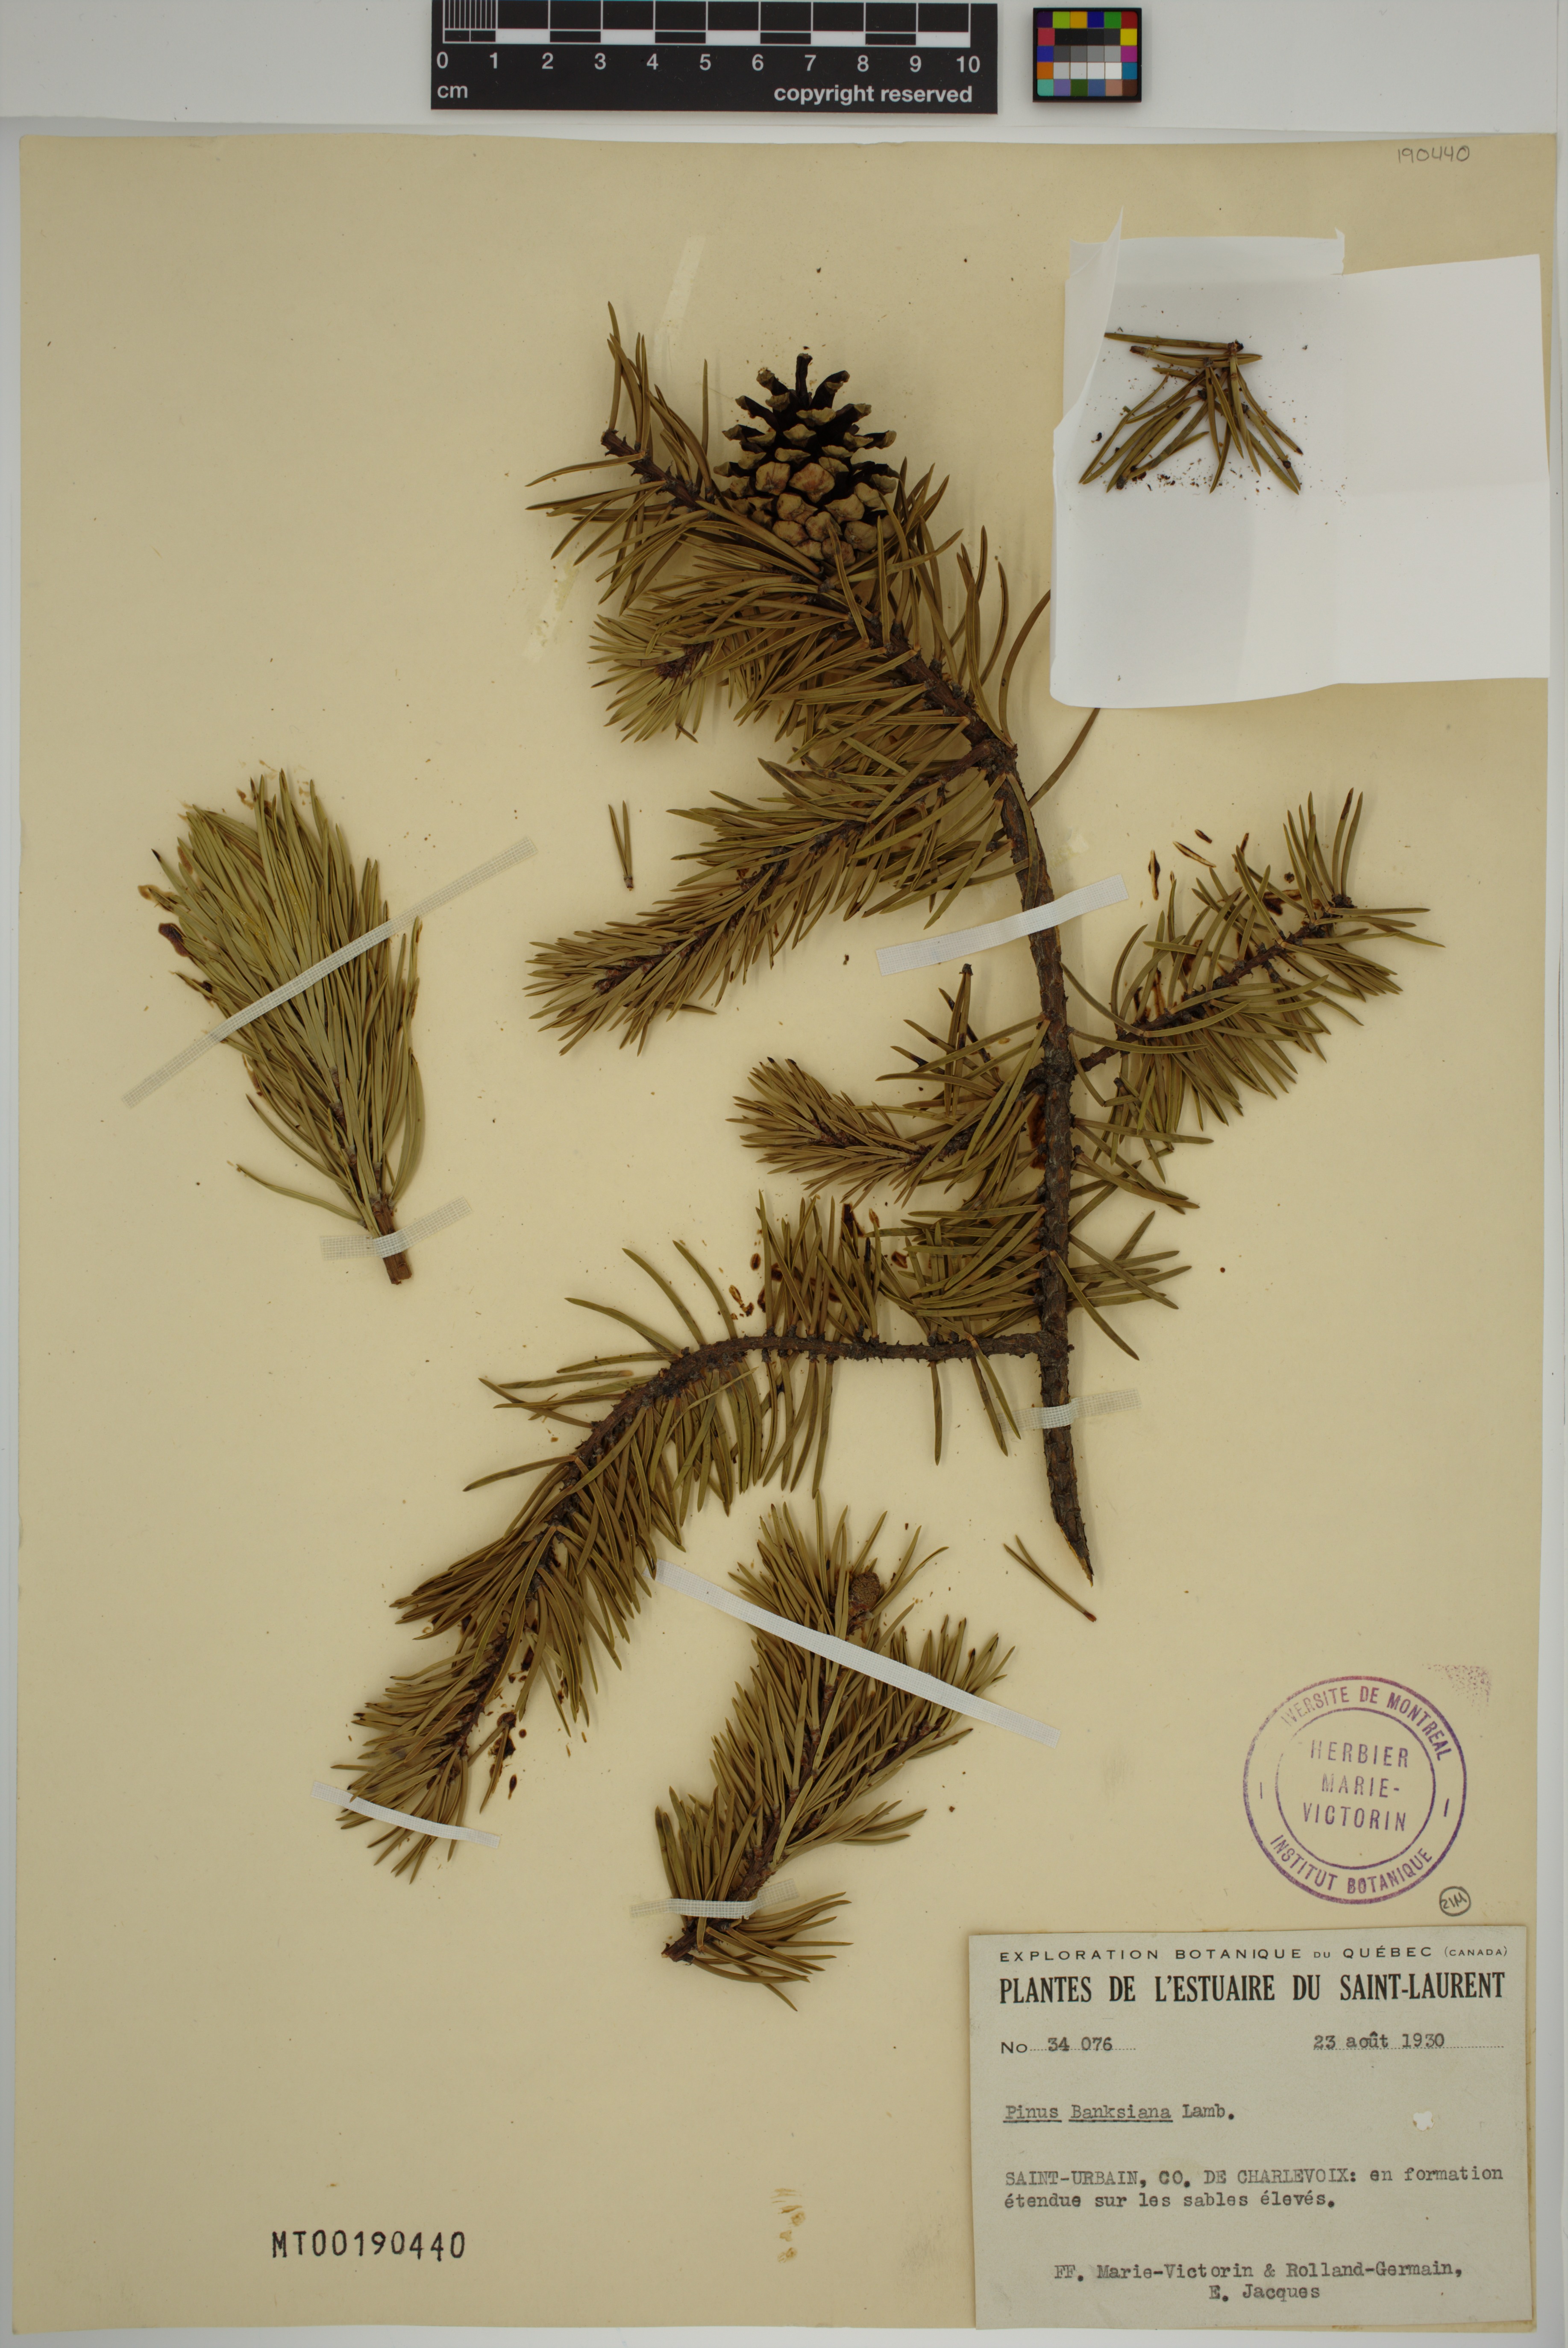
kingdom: Plantae
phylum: Tracheophyta
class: Pinopsida
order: Pinales
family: Pinaceae
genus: Pinus
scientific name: Pinus banksiana
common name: Jack pine
